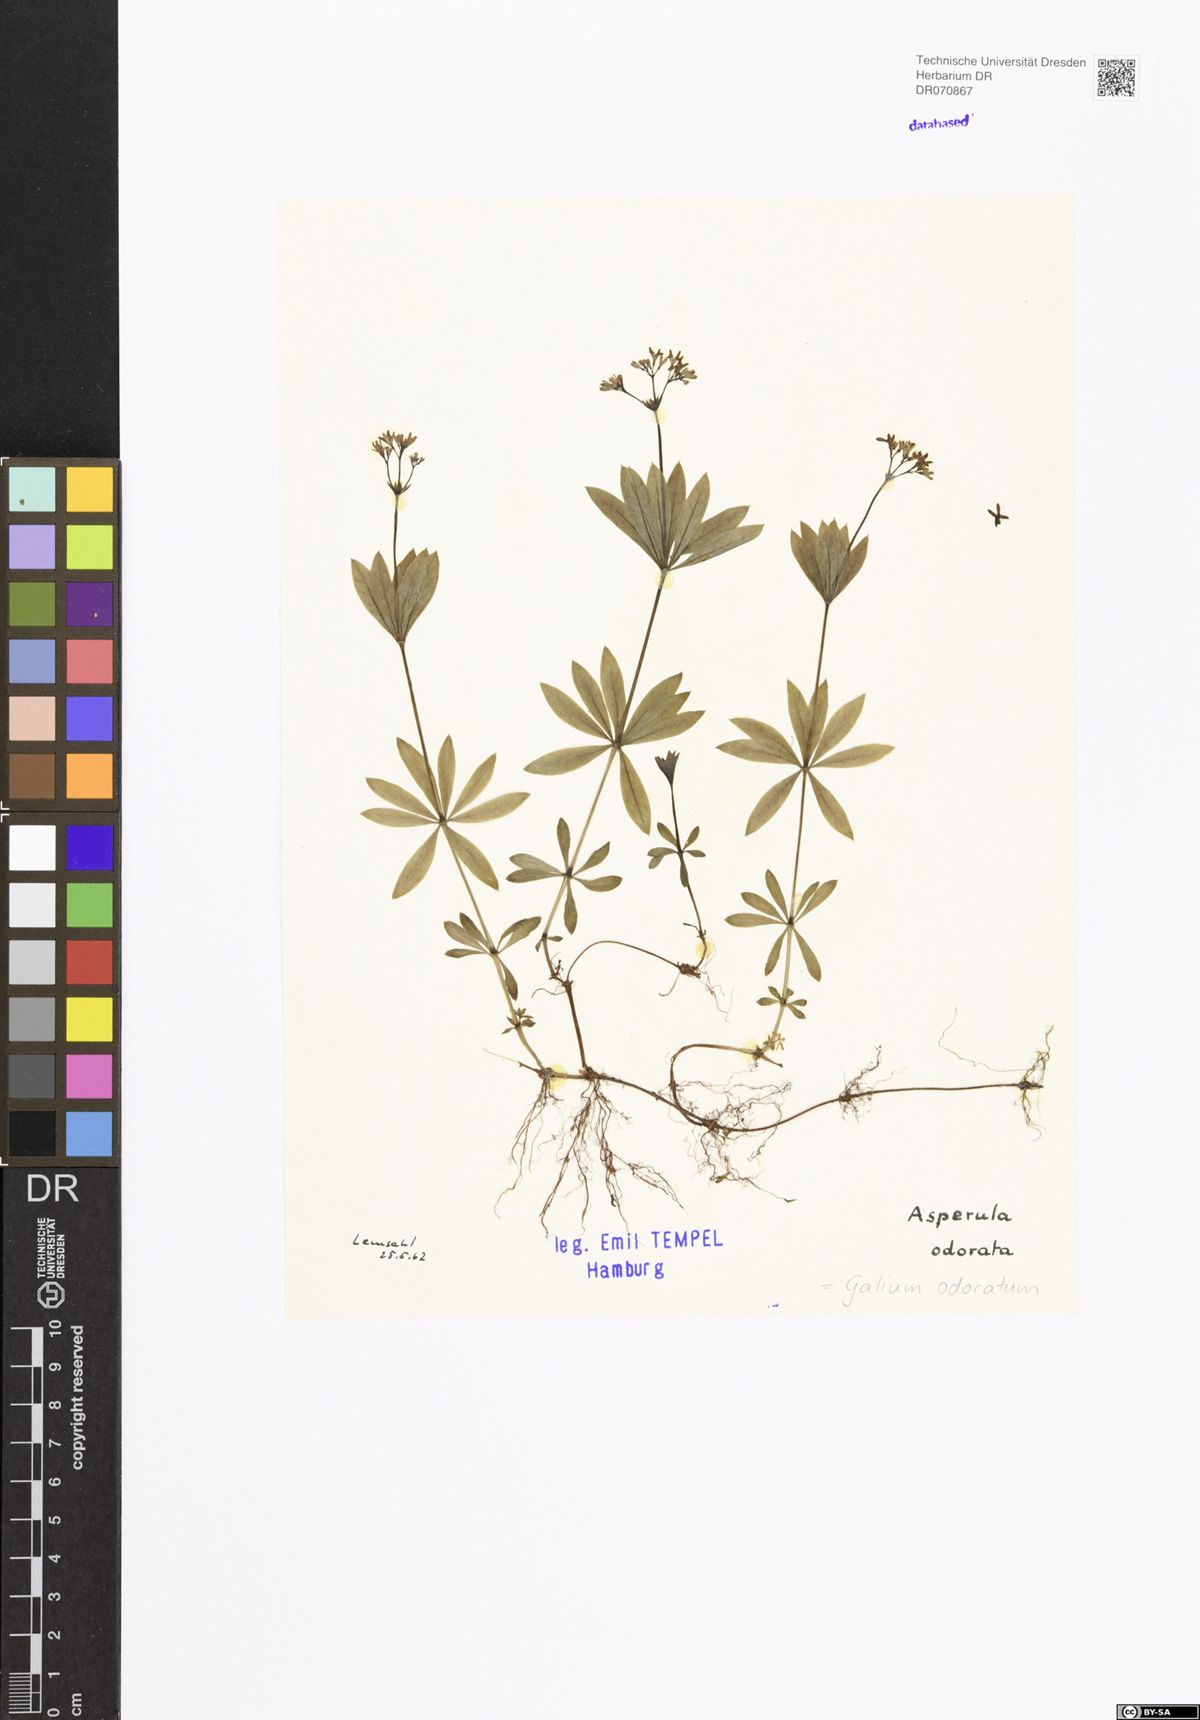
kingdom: Plantae
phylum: Tracheophyta
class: Magnoliopsida
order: Gentianales
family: Rubiaceae
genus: Galium
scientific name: Galium odoratum
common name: Sweet woodruff
